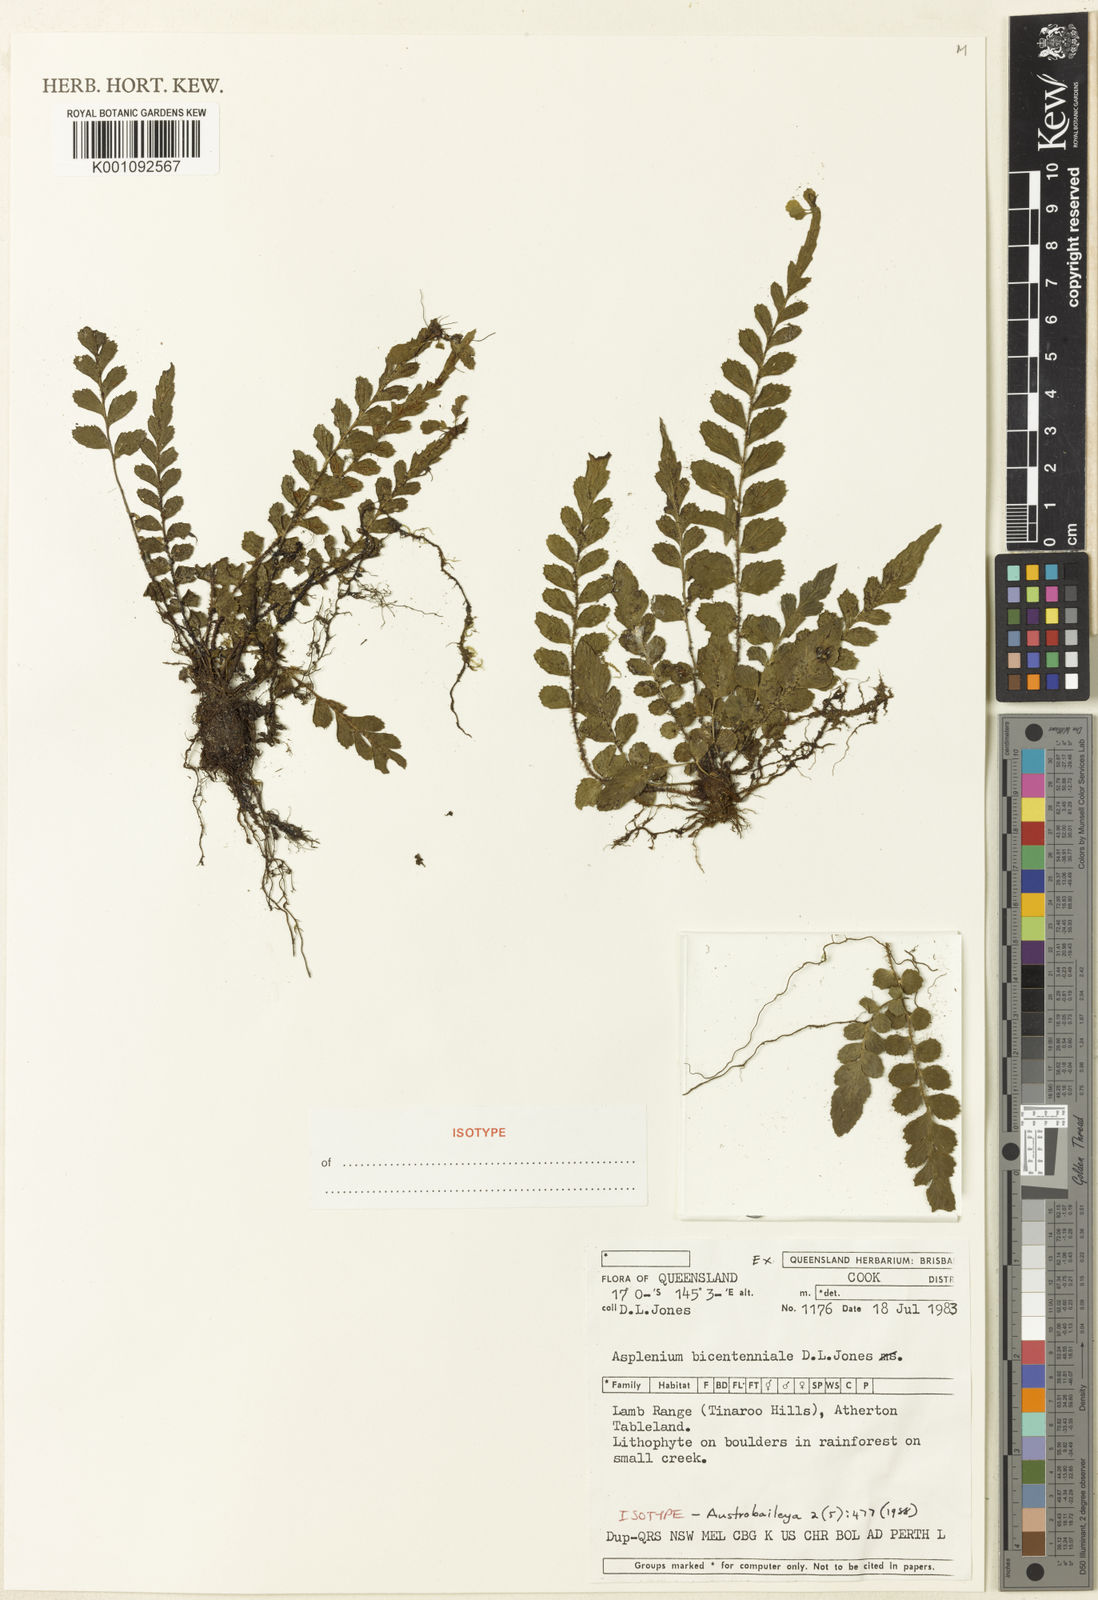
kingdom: Plantae
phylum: Tracheophyta
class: Polypodiopsida
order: Polypodiales
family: Aspleniaceae
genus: Asplenium
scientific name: Asplenium bicentenniale
